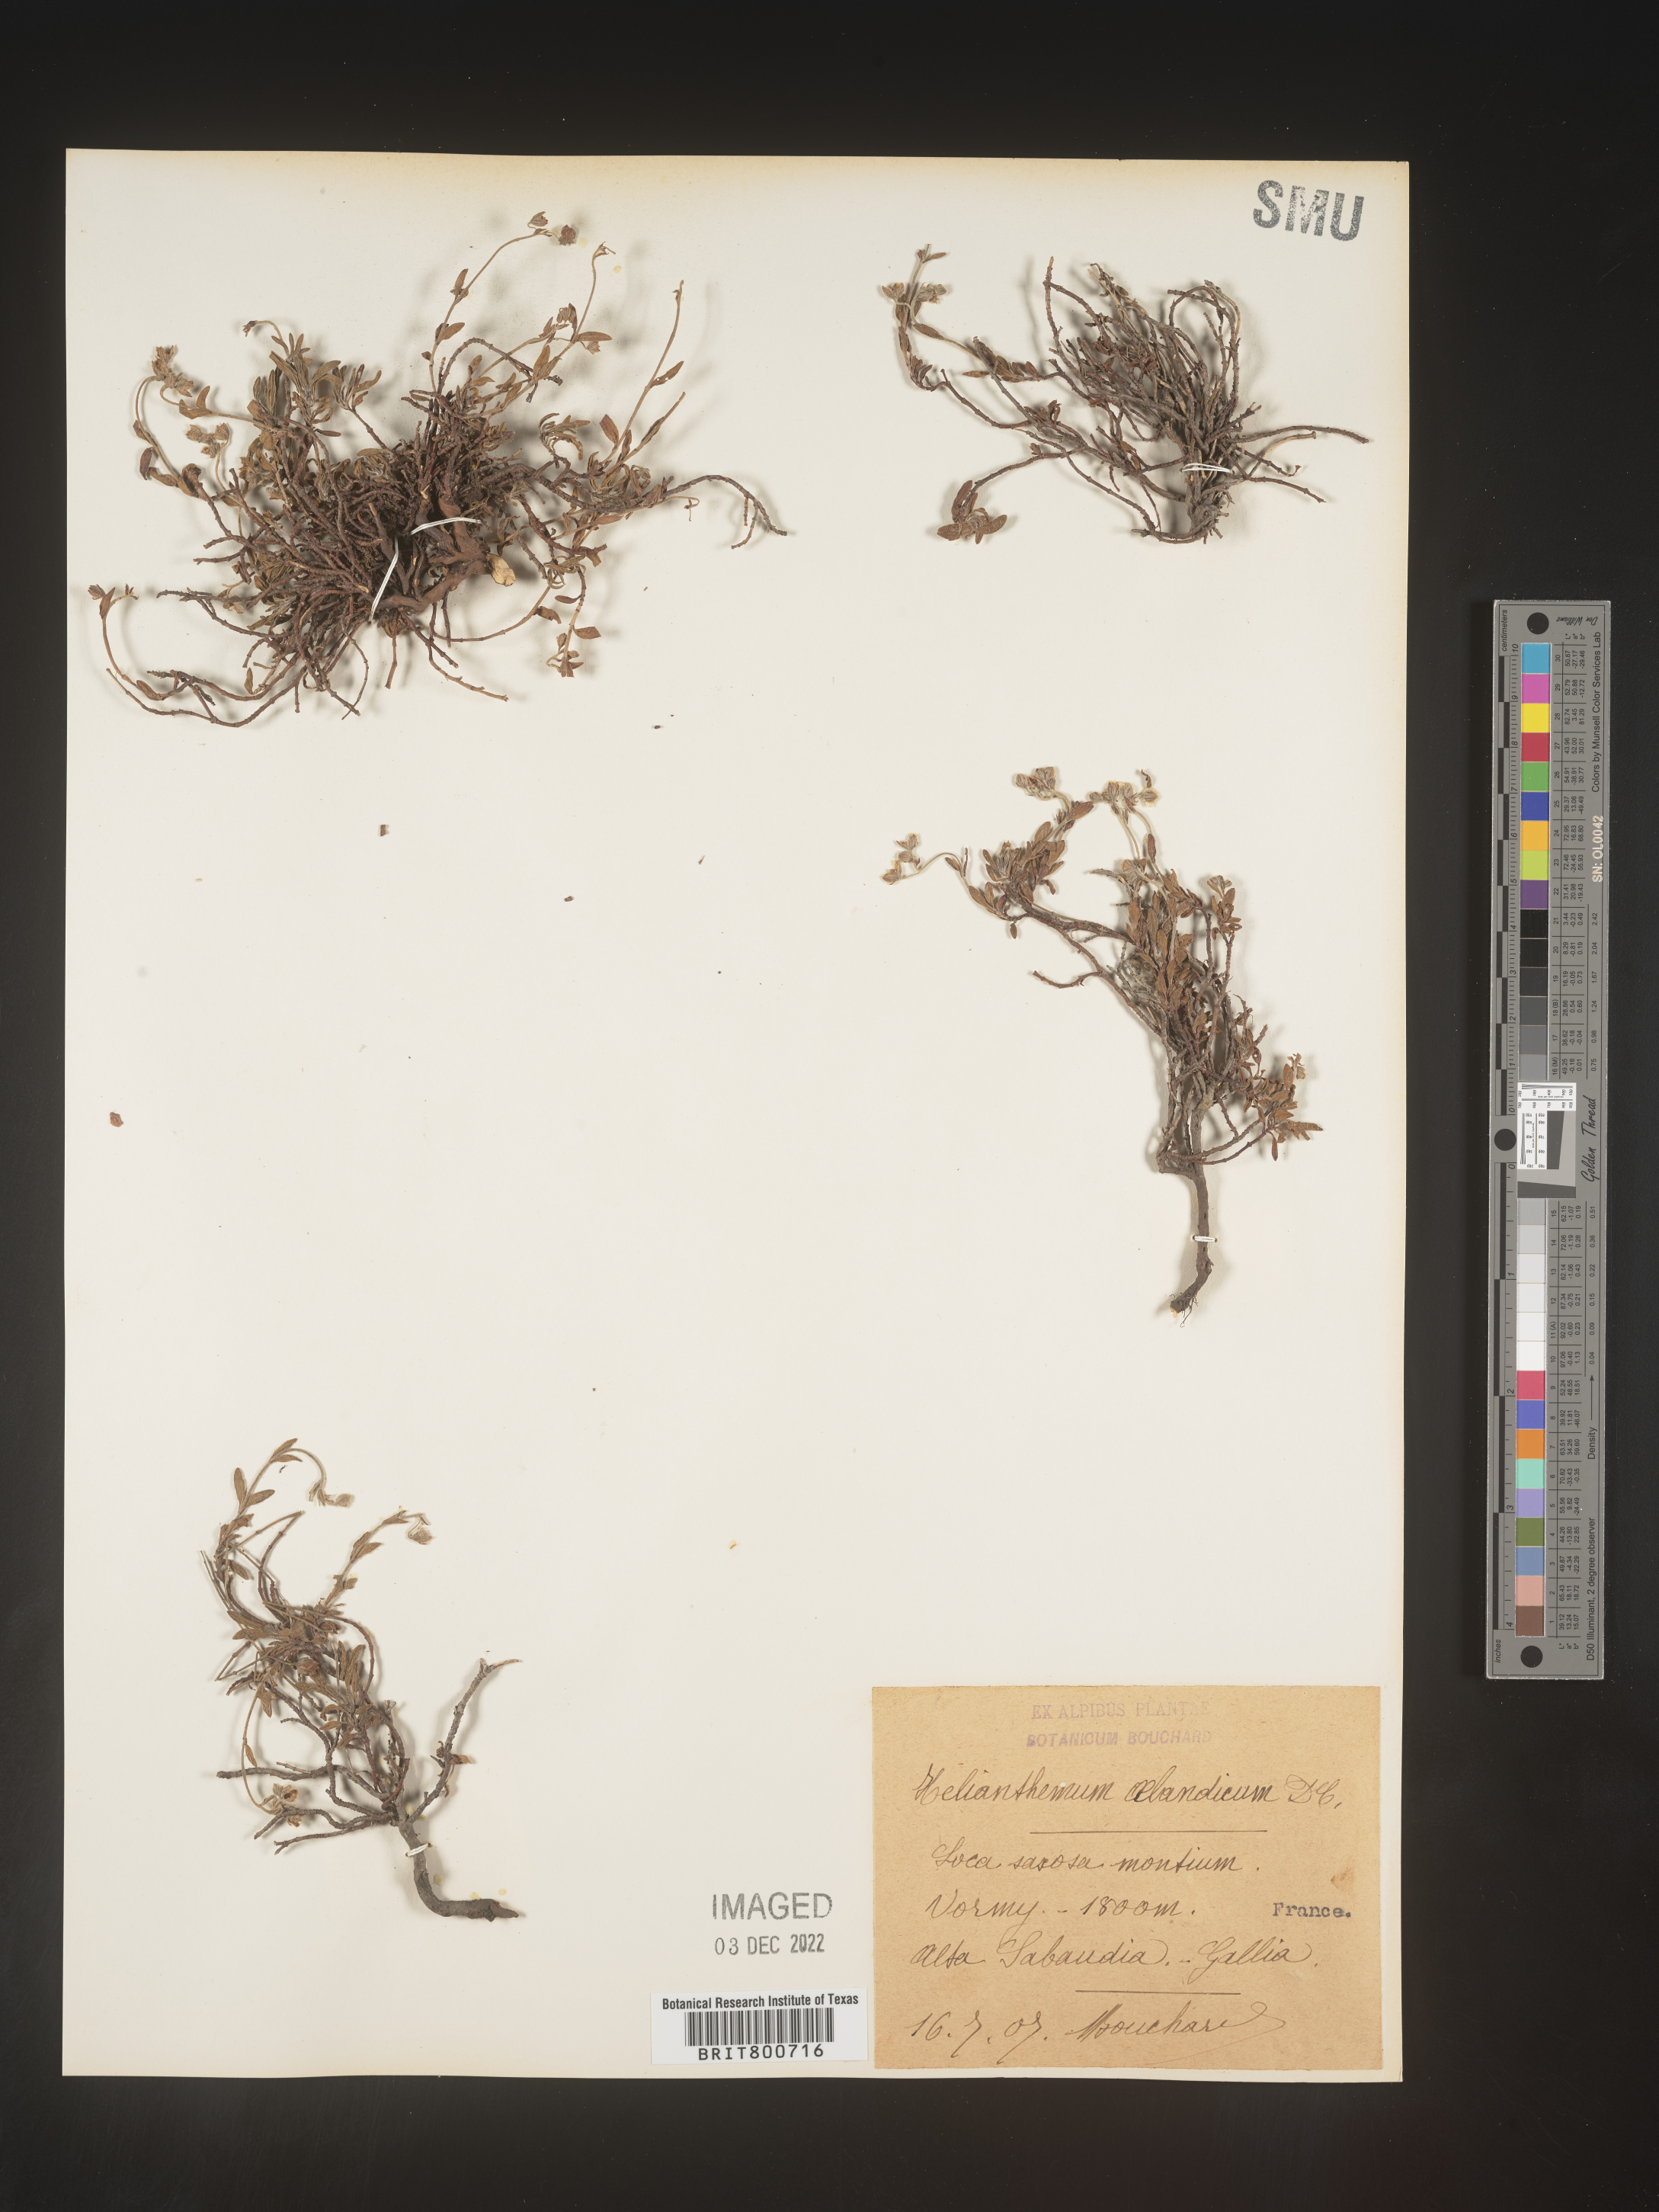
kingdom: Plantae
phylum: Tracheophyta
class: Magnoliopsida
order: Malvales
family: Cistaceae
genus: Helianthemum
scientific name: Helianthemum
